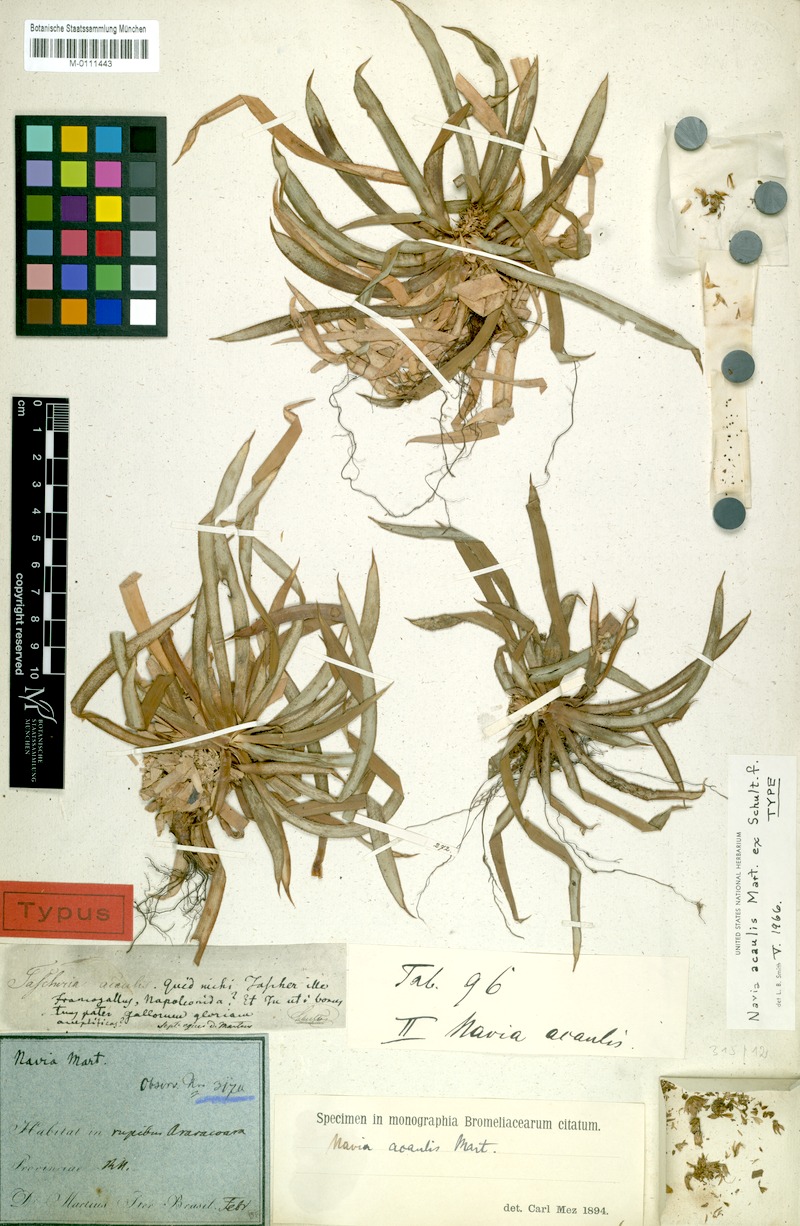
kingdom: Plantae
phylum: Tracheophyta
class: Liliopsida
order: Poales
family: Bromeliaceae
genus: Navia
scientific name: Navia acaulis
